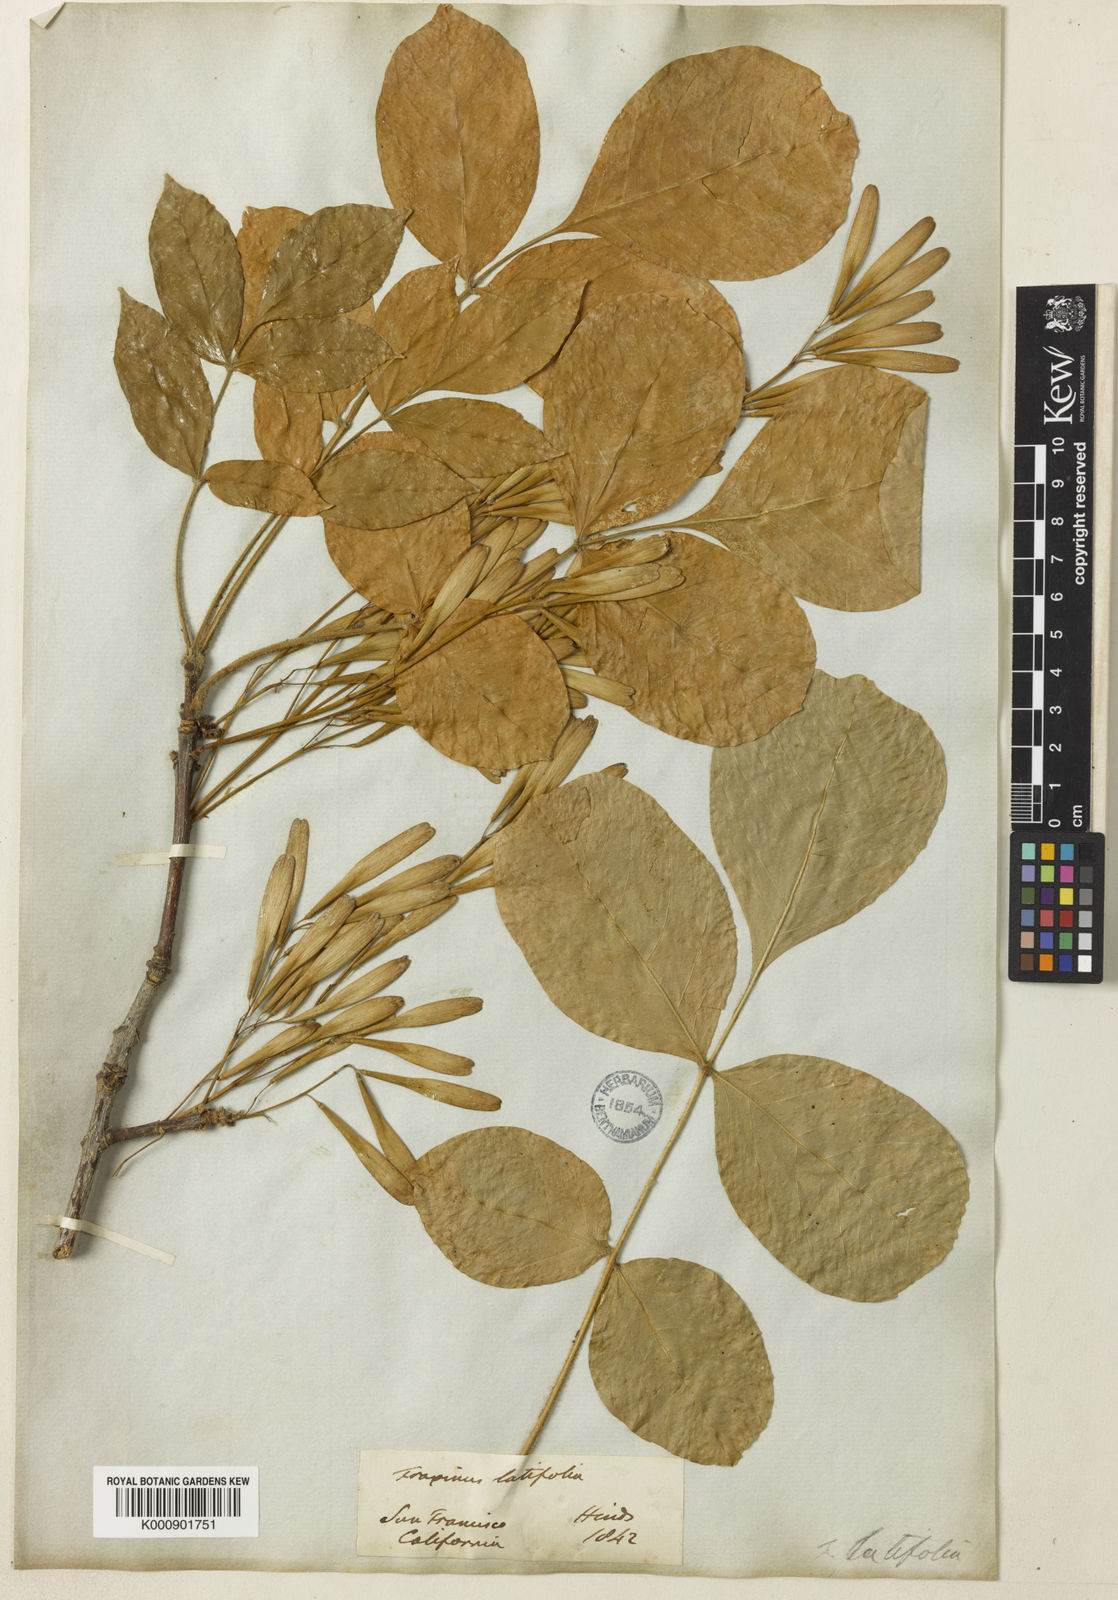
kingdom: Plantae
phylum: Tracheophyta
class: Magnoliopsida
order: Lamiales
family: Oleaceae
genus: Fraxinus
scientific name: Fraxinus latifolia
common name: Oregon ash
